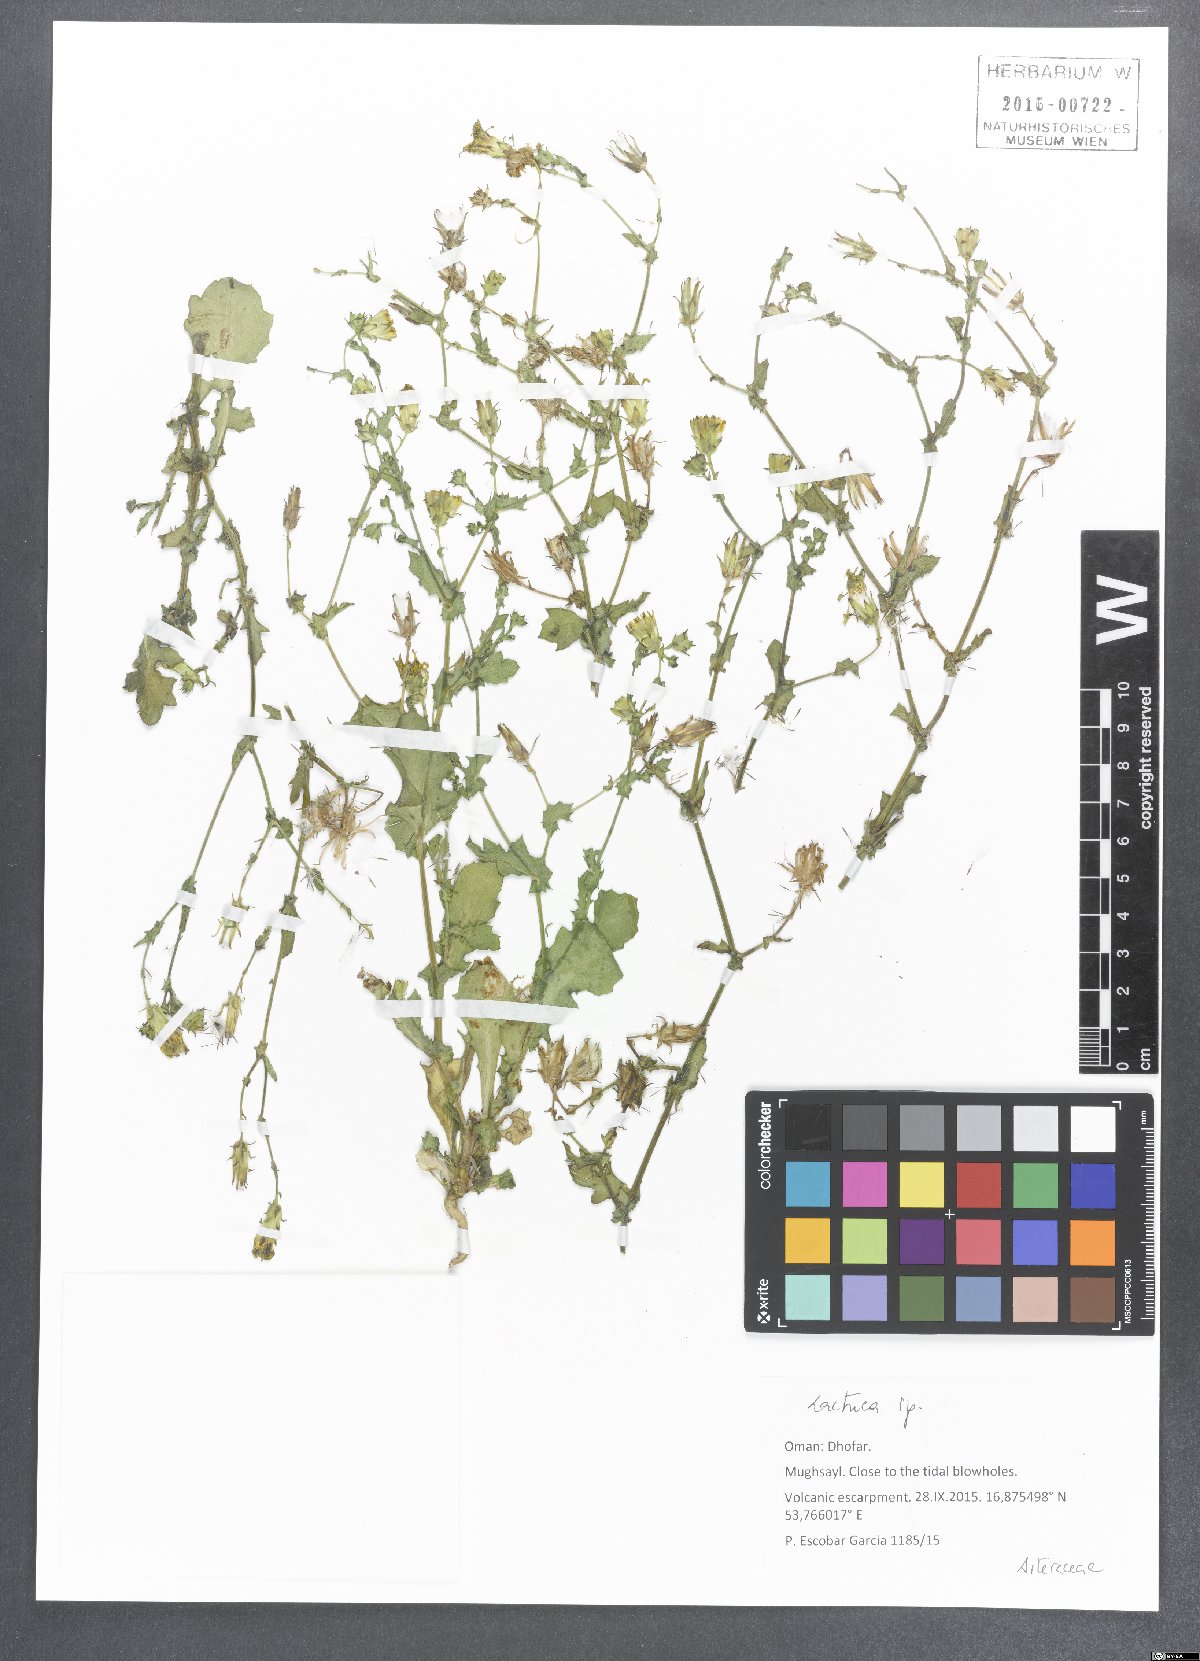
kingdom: Plantae
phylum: Tracheophyta
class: Magnoliopsida
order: Asterales
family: Asteraceae
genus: Lactuca
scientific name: Lactuca
